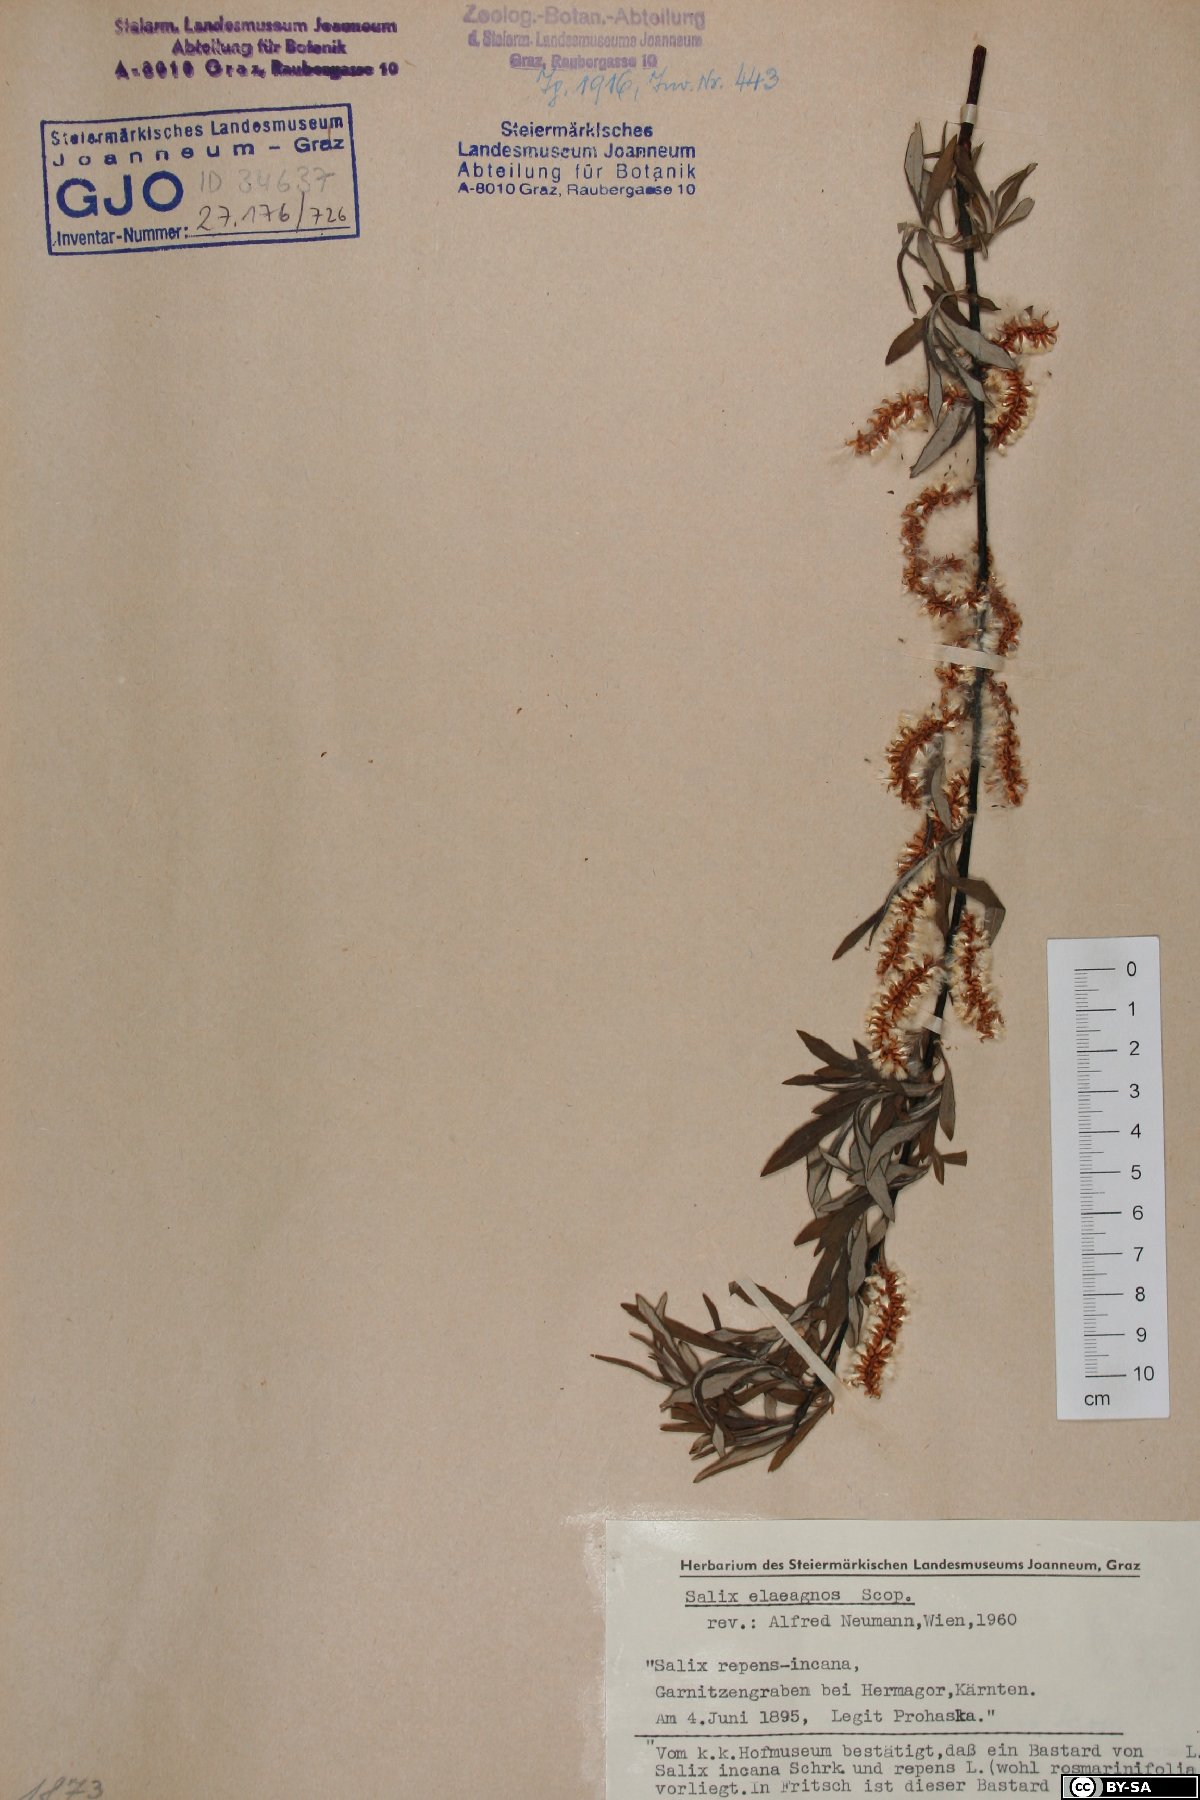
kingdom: Plantae
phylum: Tracheophyta
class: Magnoliopsida
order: Malpighiales
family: Salicaceae
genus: Salix
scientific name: Salix eleagnos
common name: Elaeagnus willow
